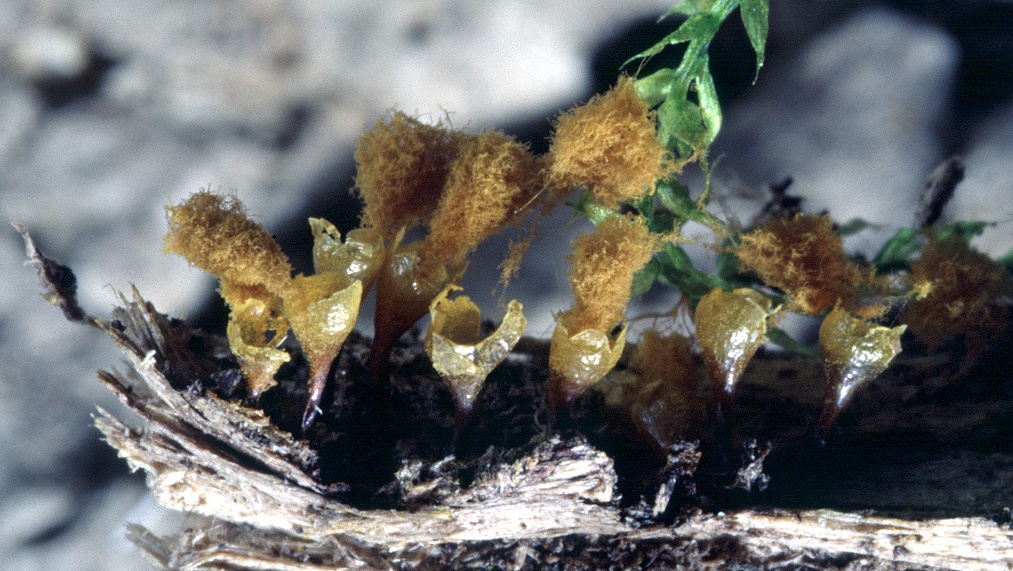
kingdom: Protozoa
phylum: Mycetozoa
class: Myxomycetes
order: Trichiales
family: Arcyriaceae
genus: Hemitrichia
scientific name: Hemitrichia clavata
